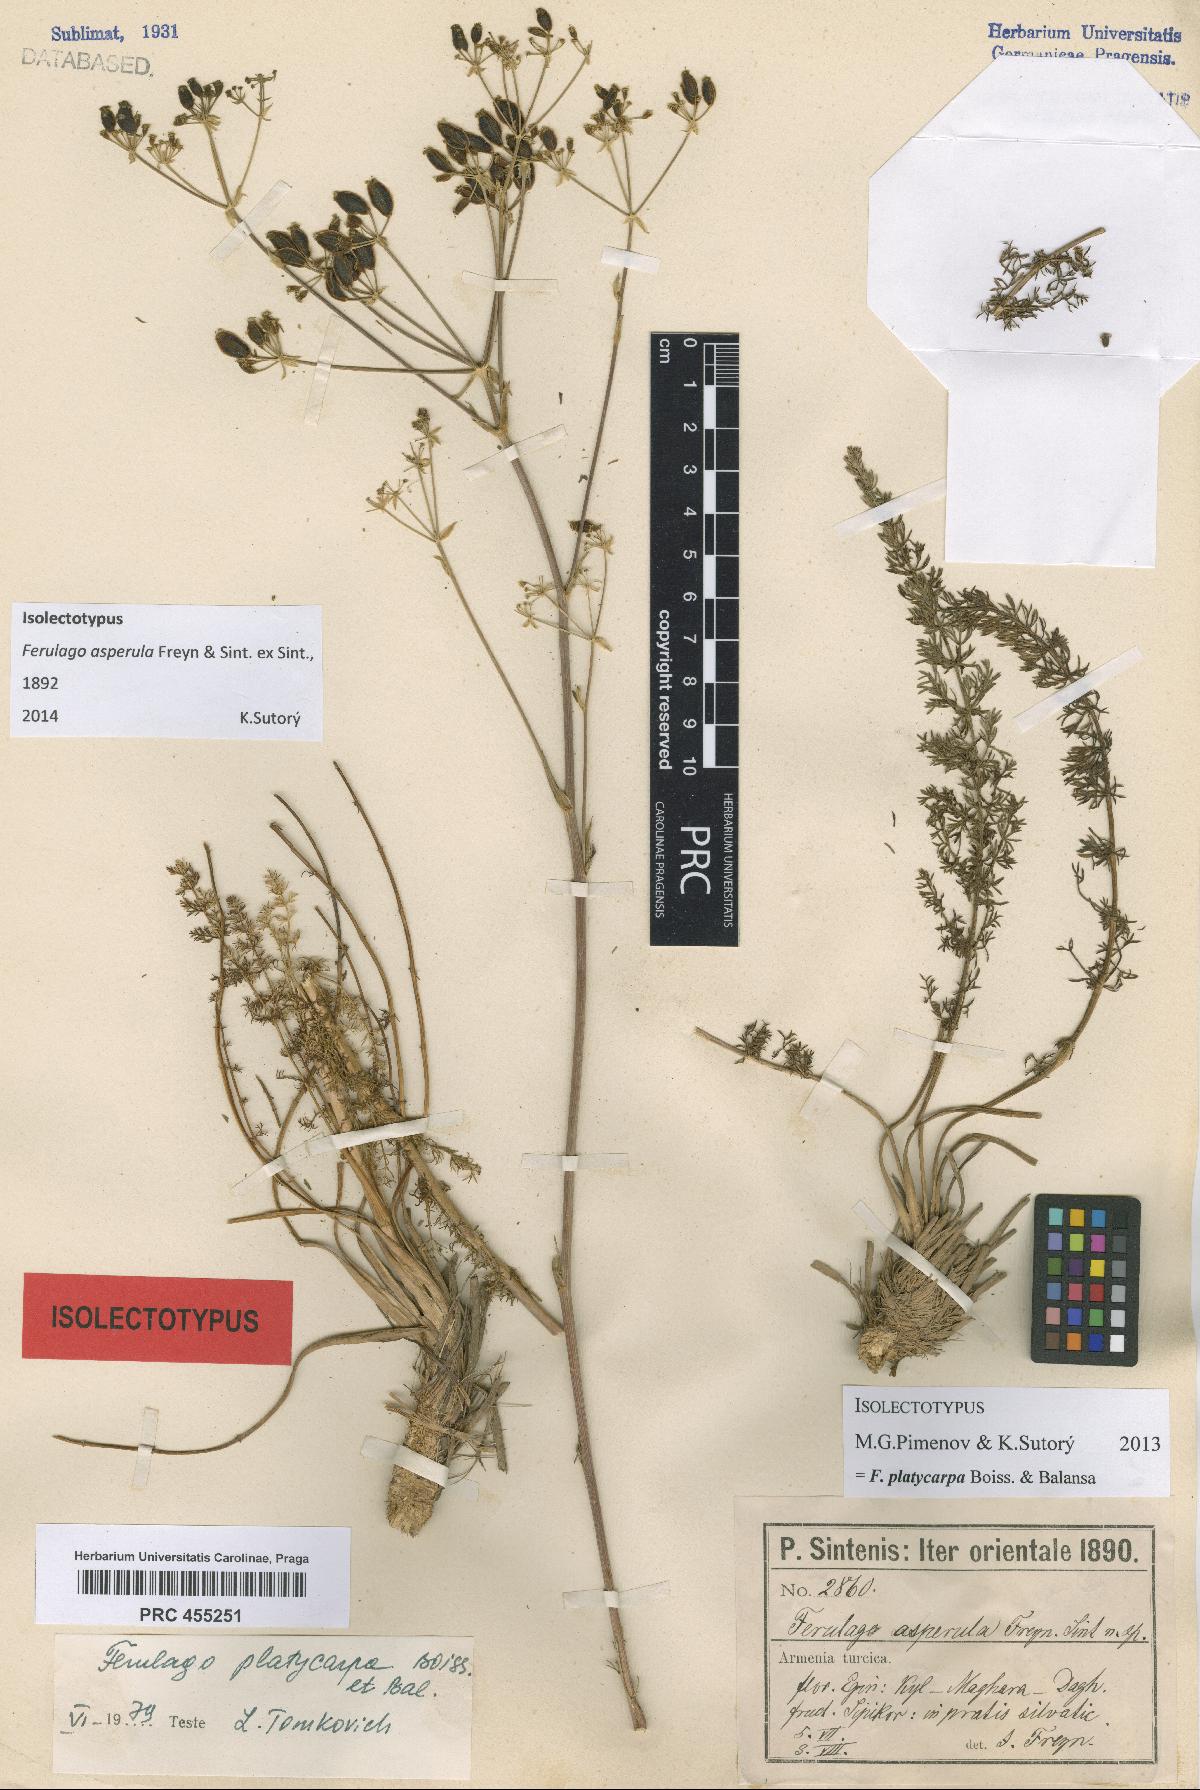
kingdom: Plantae
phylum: Tracheophyta
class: Magnoliopsida
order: Apiales
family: Apiaceae
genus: Ferulago
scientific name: Ferulago platycarpa
